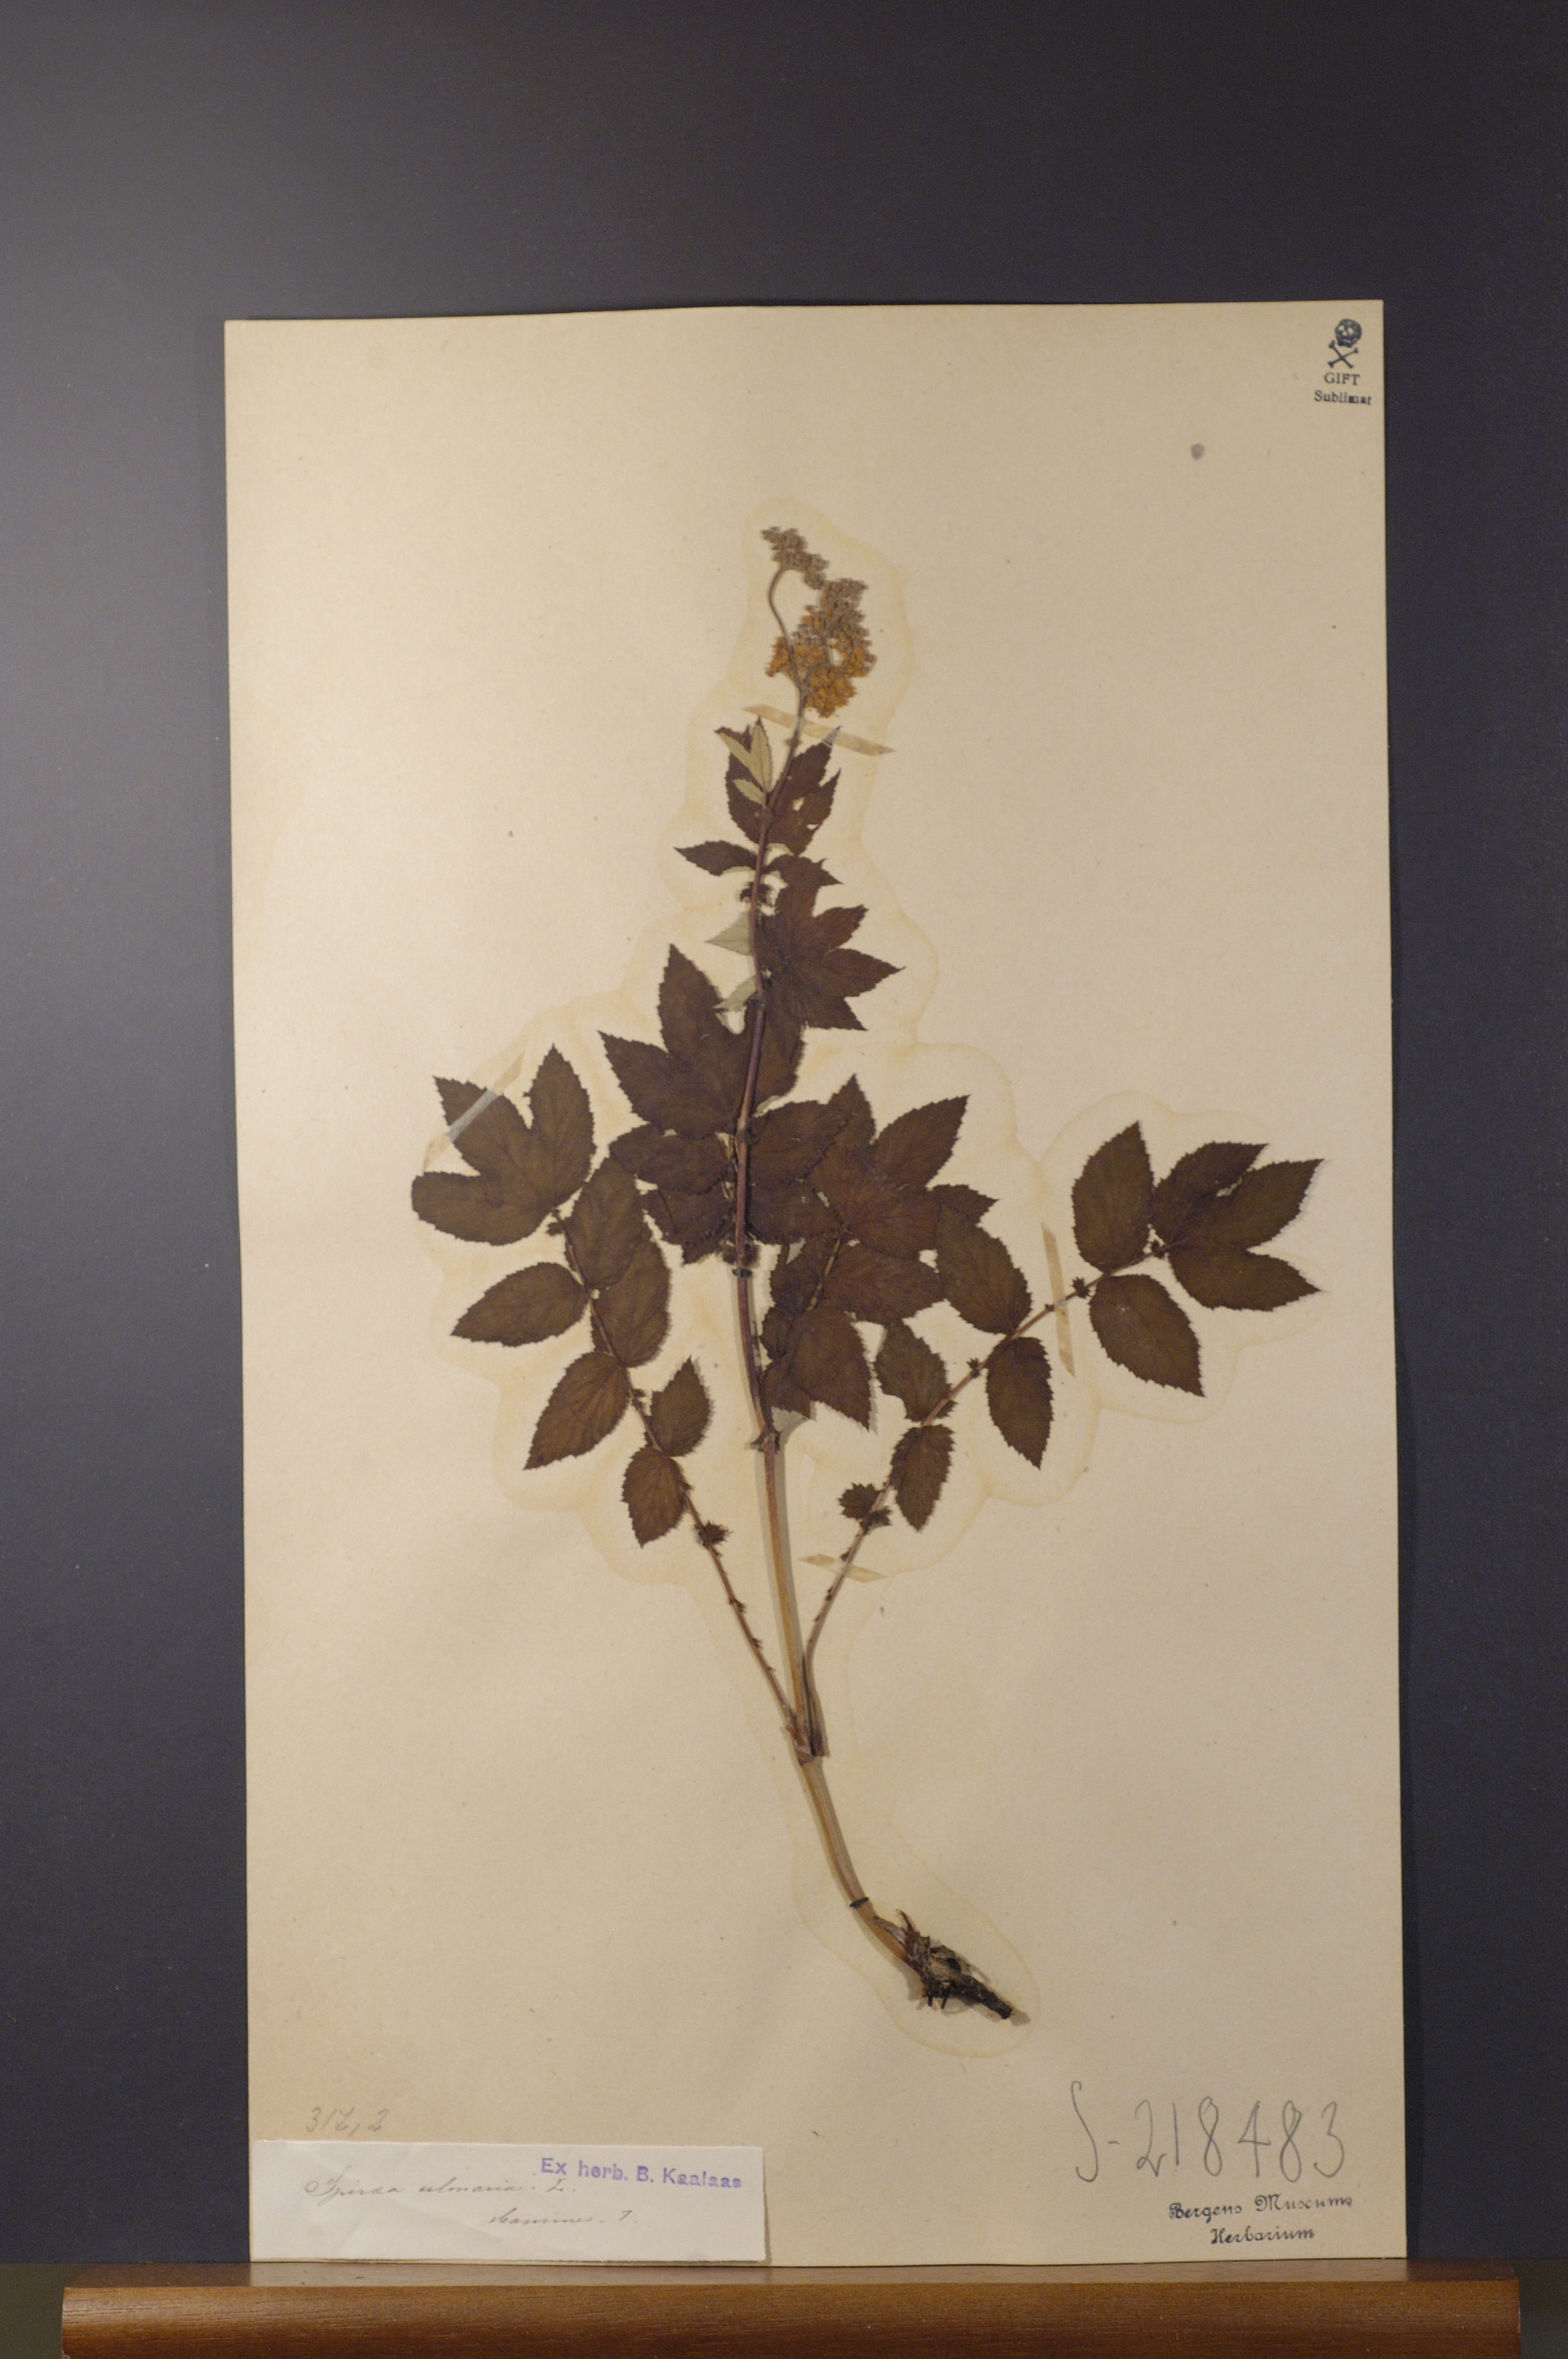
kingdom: Plantae
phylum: Tracheophyta
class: Magnoliopsida
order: Rosales
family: Rosaceae
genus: Filipendula
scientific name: Filipendula ulmaria
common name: Meadowsweet
